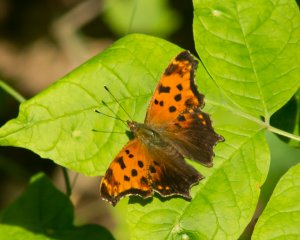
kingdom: Animalia
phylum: Arthropoda
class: Insecta
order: Lepidoptera
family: Nymphalidae
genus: Polygonia
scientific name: Polygonia comma
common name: Eastern Comma
